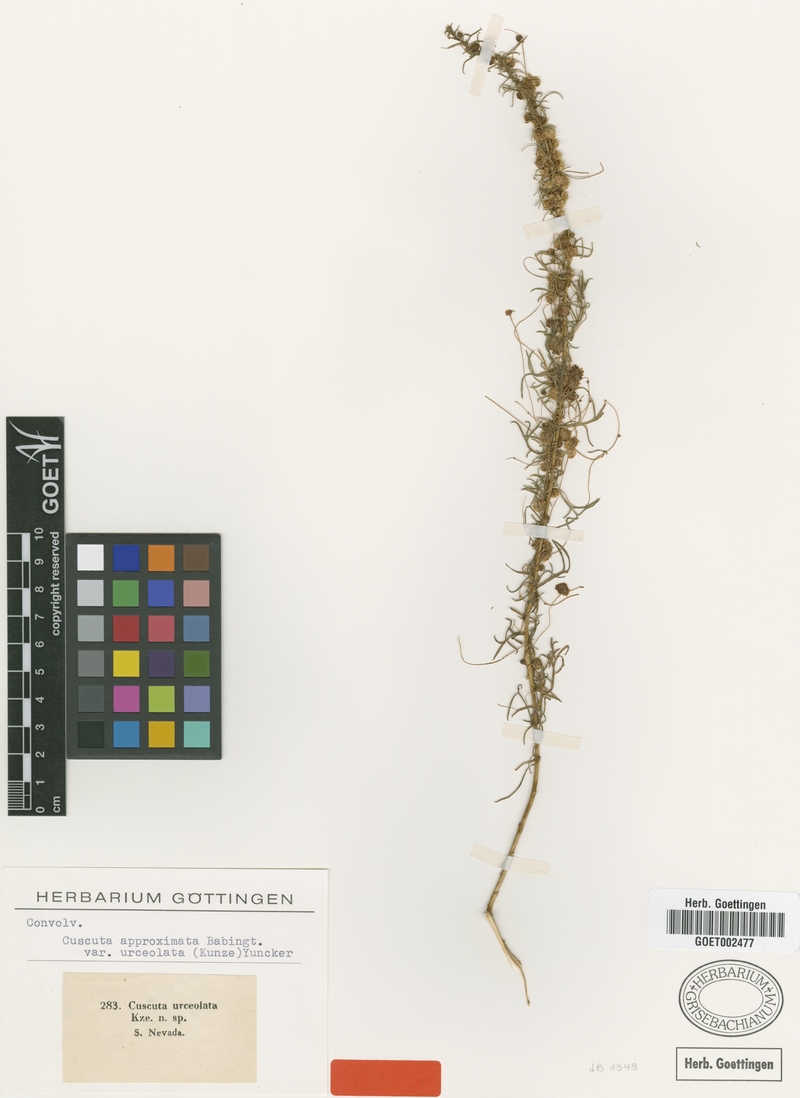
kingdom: Plantae
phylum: Tracheophyta
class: Magnoliopsida
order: Solanales
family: Convolvulaceae
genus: Cuscuta
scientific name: Cuscuta approximata
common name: Alfalfa dodder
